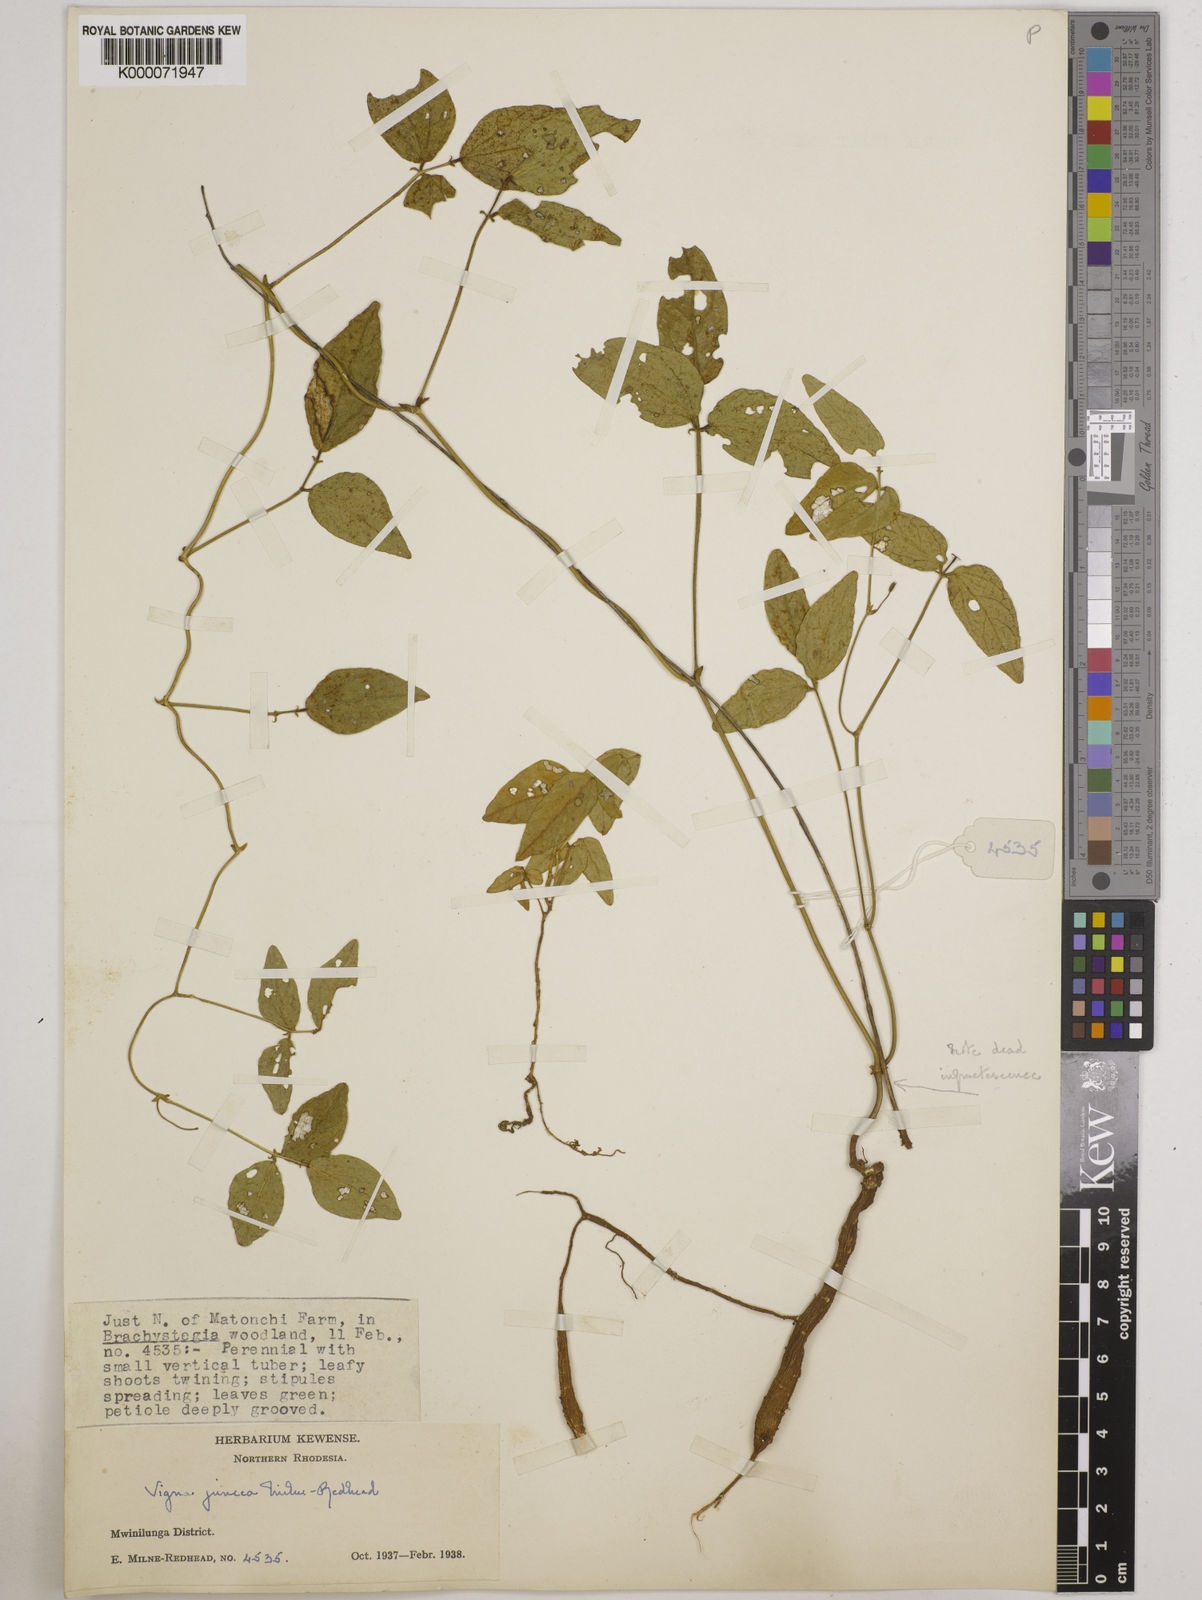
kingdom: Plantae
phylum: Tracheophyta
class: Magnoliopsida
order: Fabales
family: Fabaceae
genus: Vigna
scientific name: Vigna juncea
